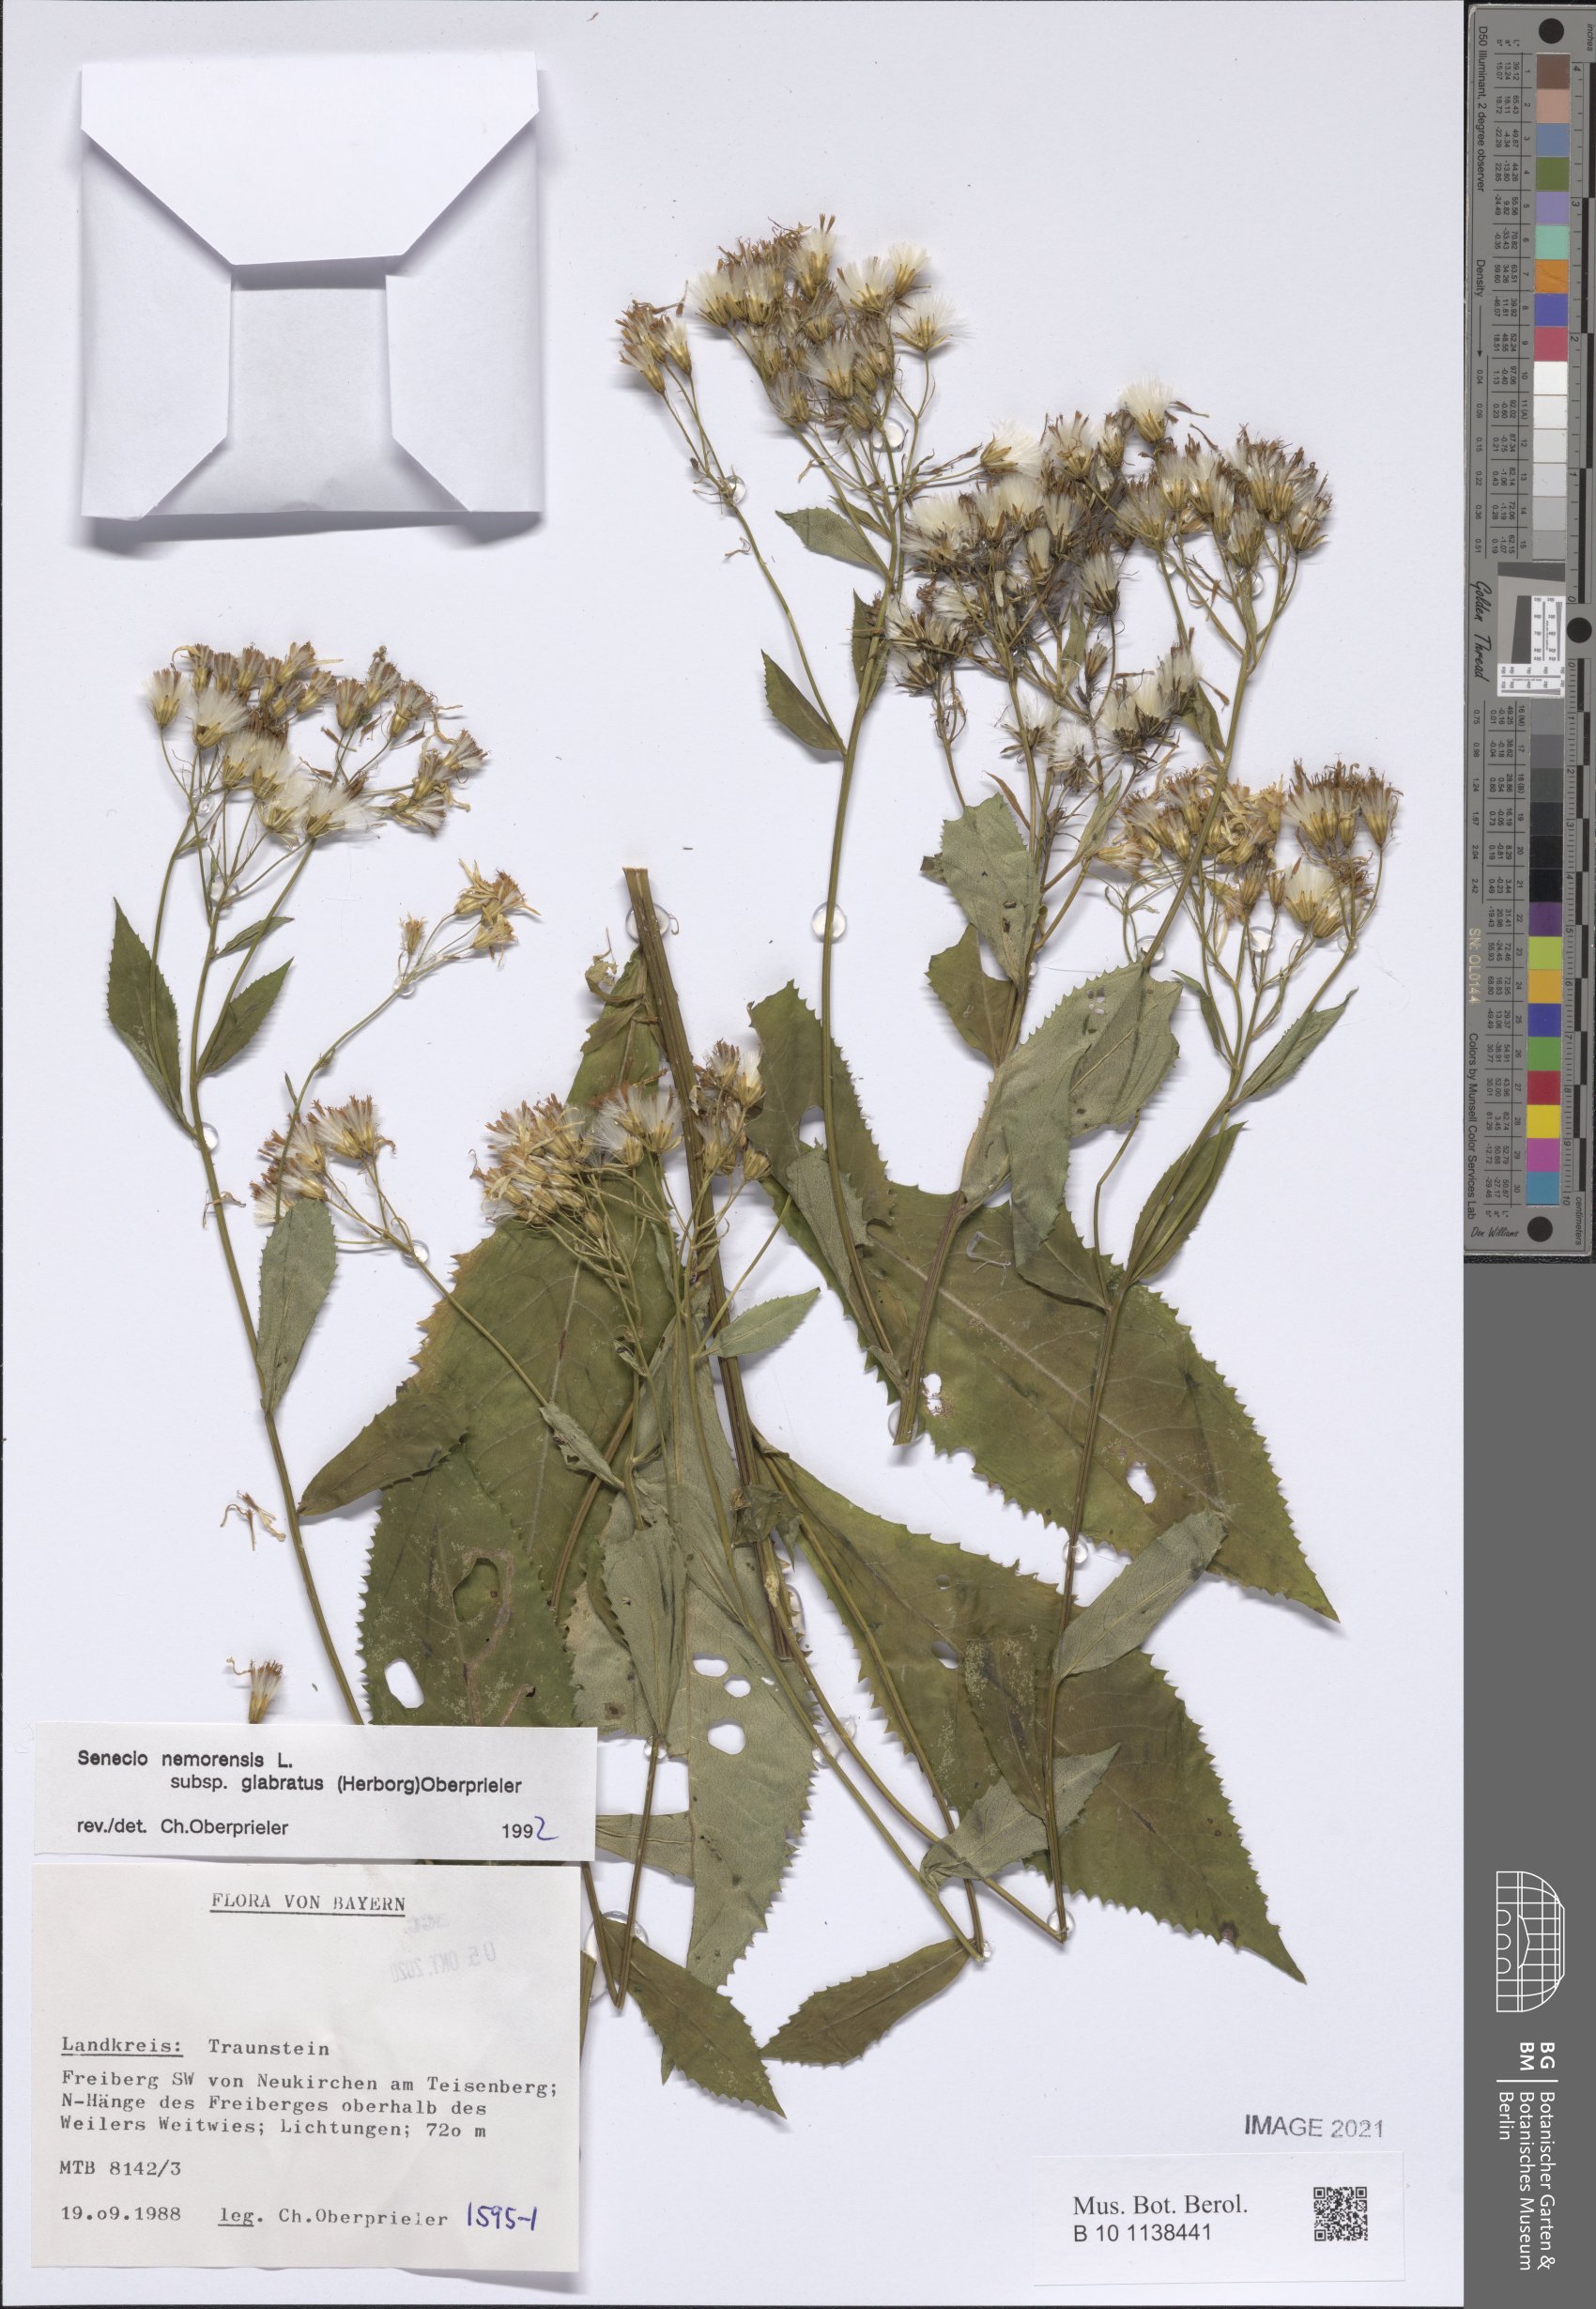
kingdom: Plantae
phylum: Tracheophyta
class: Magnoliopsida
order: Asterales
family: Asteraceae
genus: Senecio
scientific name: Senecio germanicus
